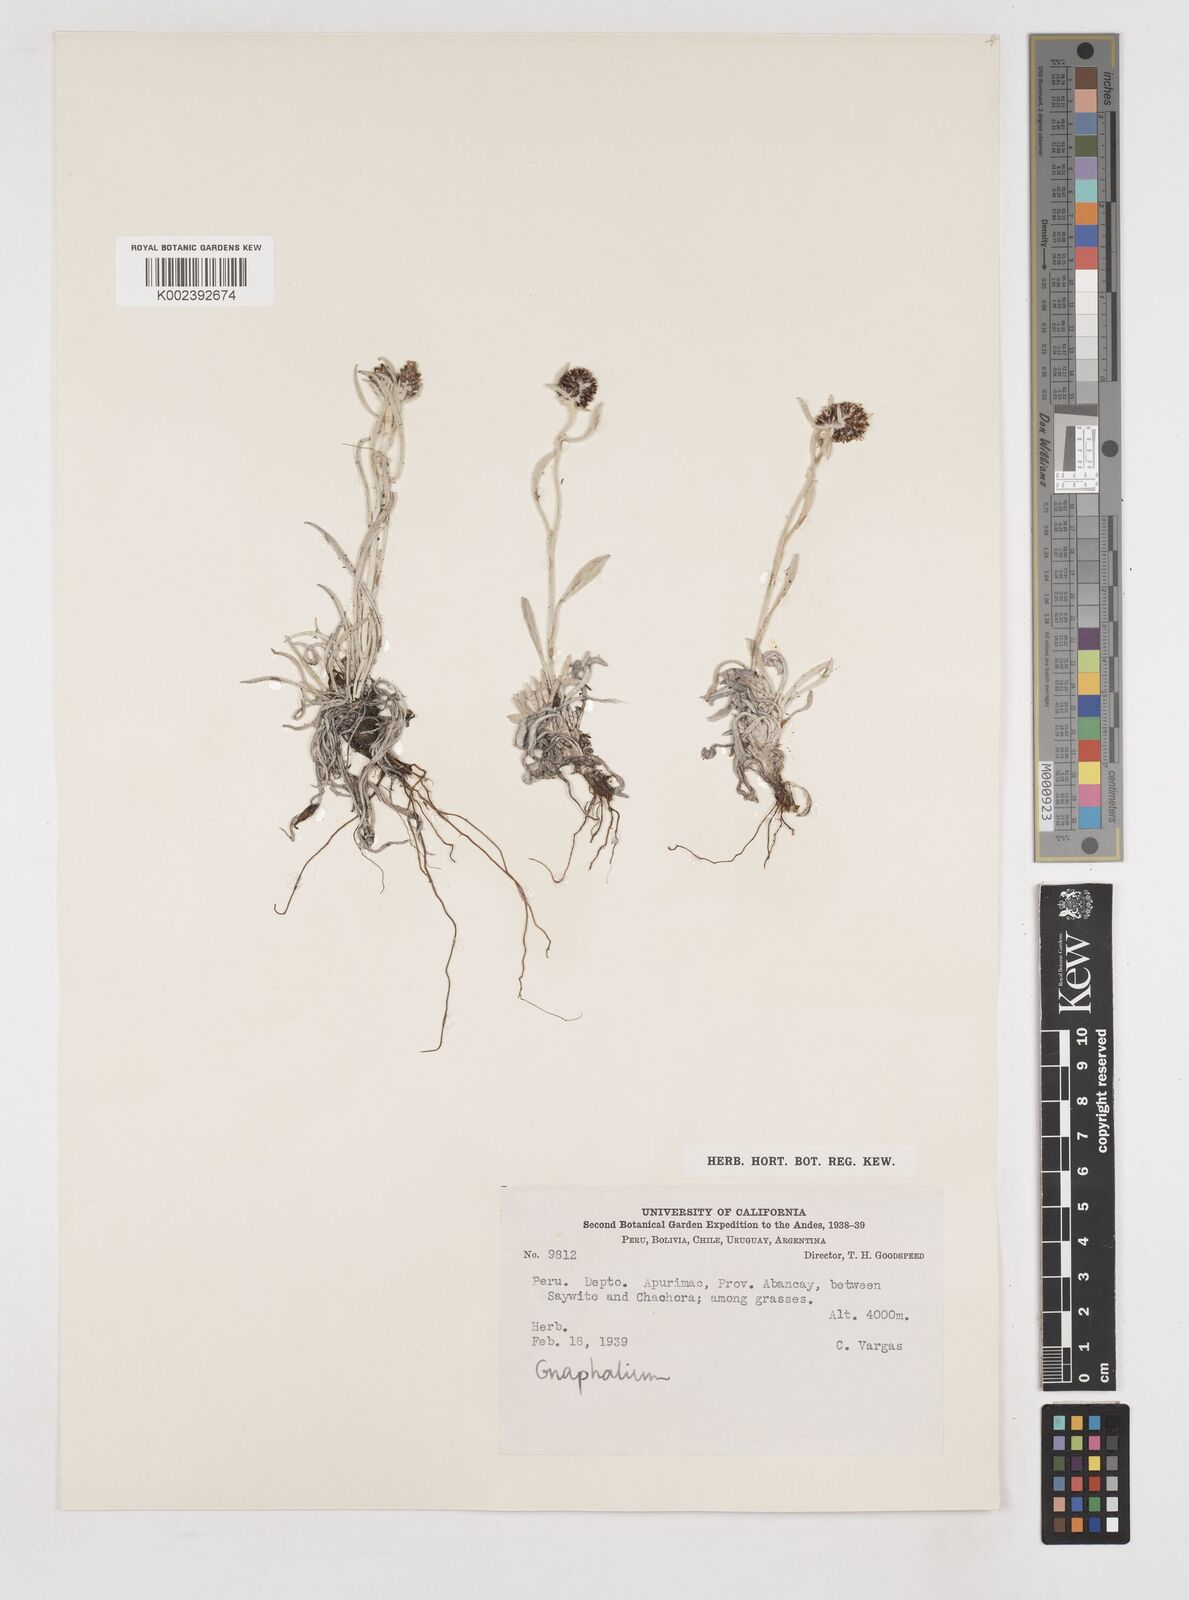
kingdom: Plantae
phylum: Tracheophyta
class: Magnoliopsida
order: Asterales
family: Asteraceae
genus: Gnaphalium
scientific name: Gnaphalium
